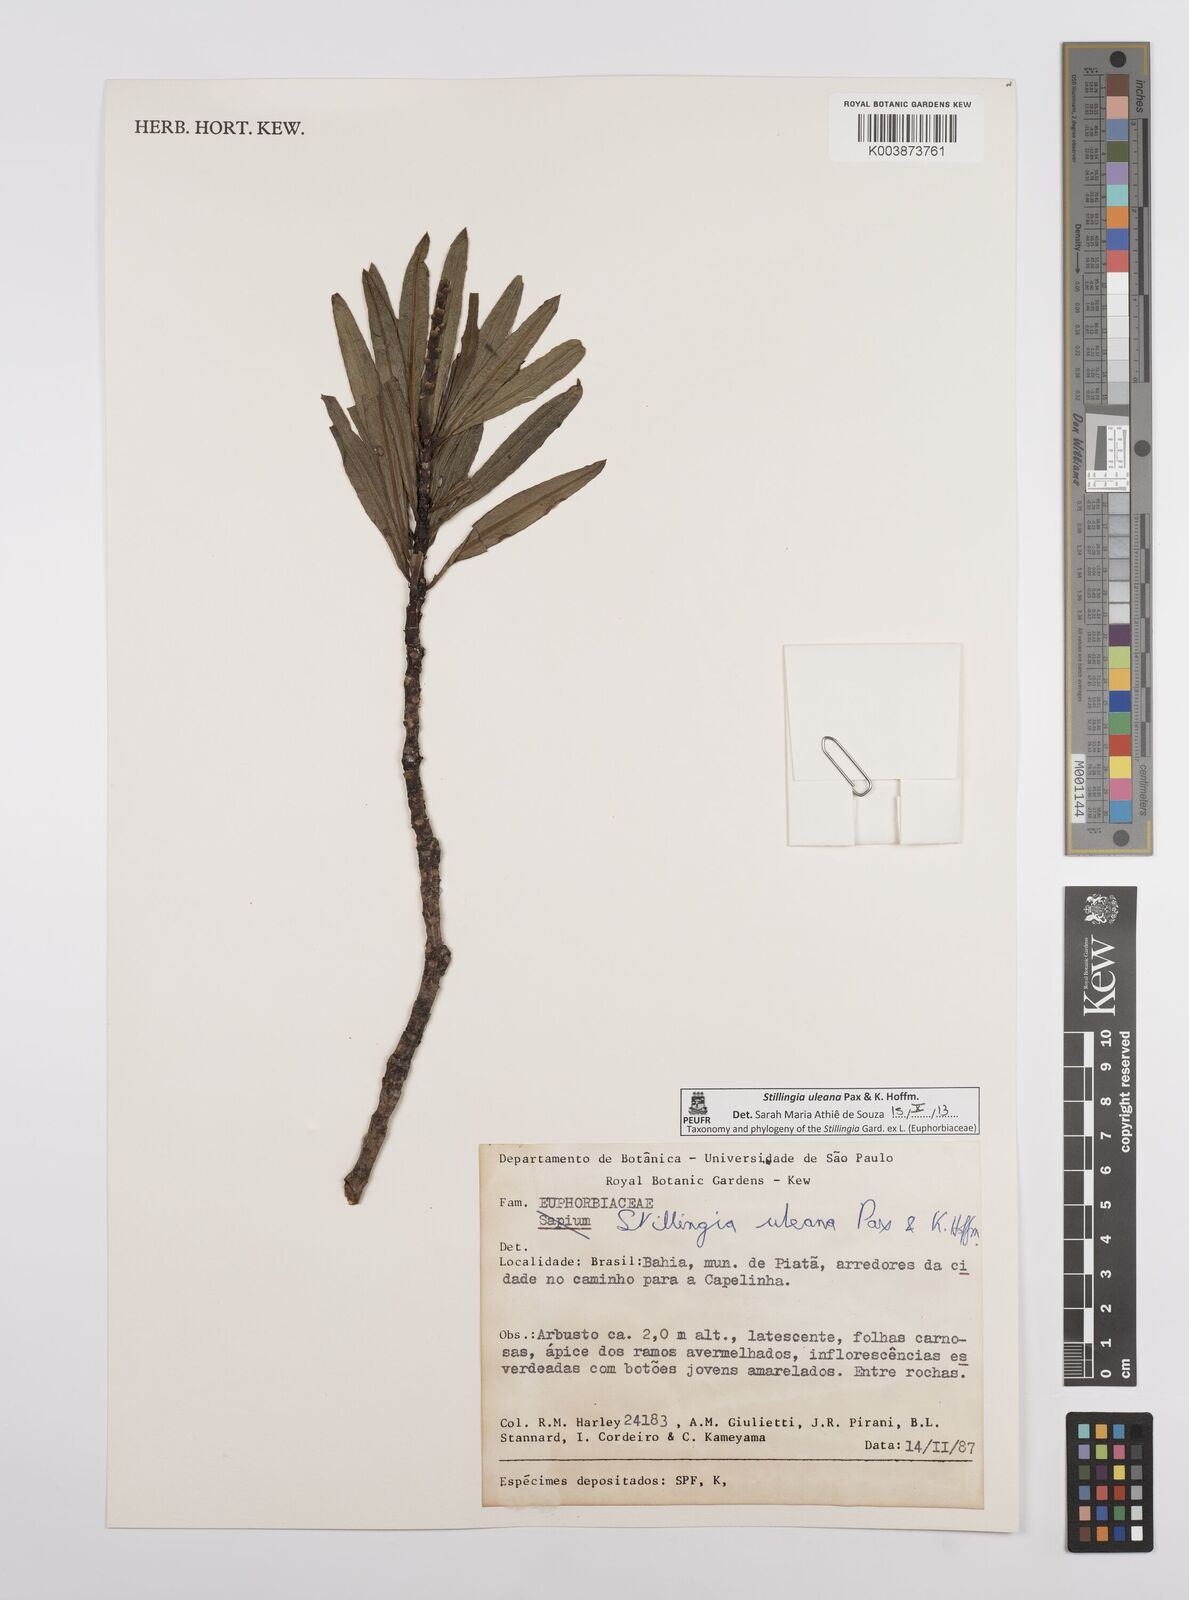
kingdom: Plantae
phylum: Tracheophyta
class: Magnoliopsida
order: Malpighiales
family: Euphorbiaceae
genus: Stillingia
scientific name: Stillingia uleana
